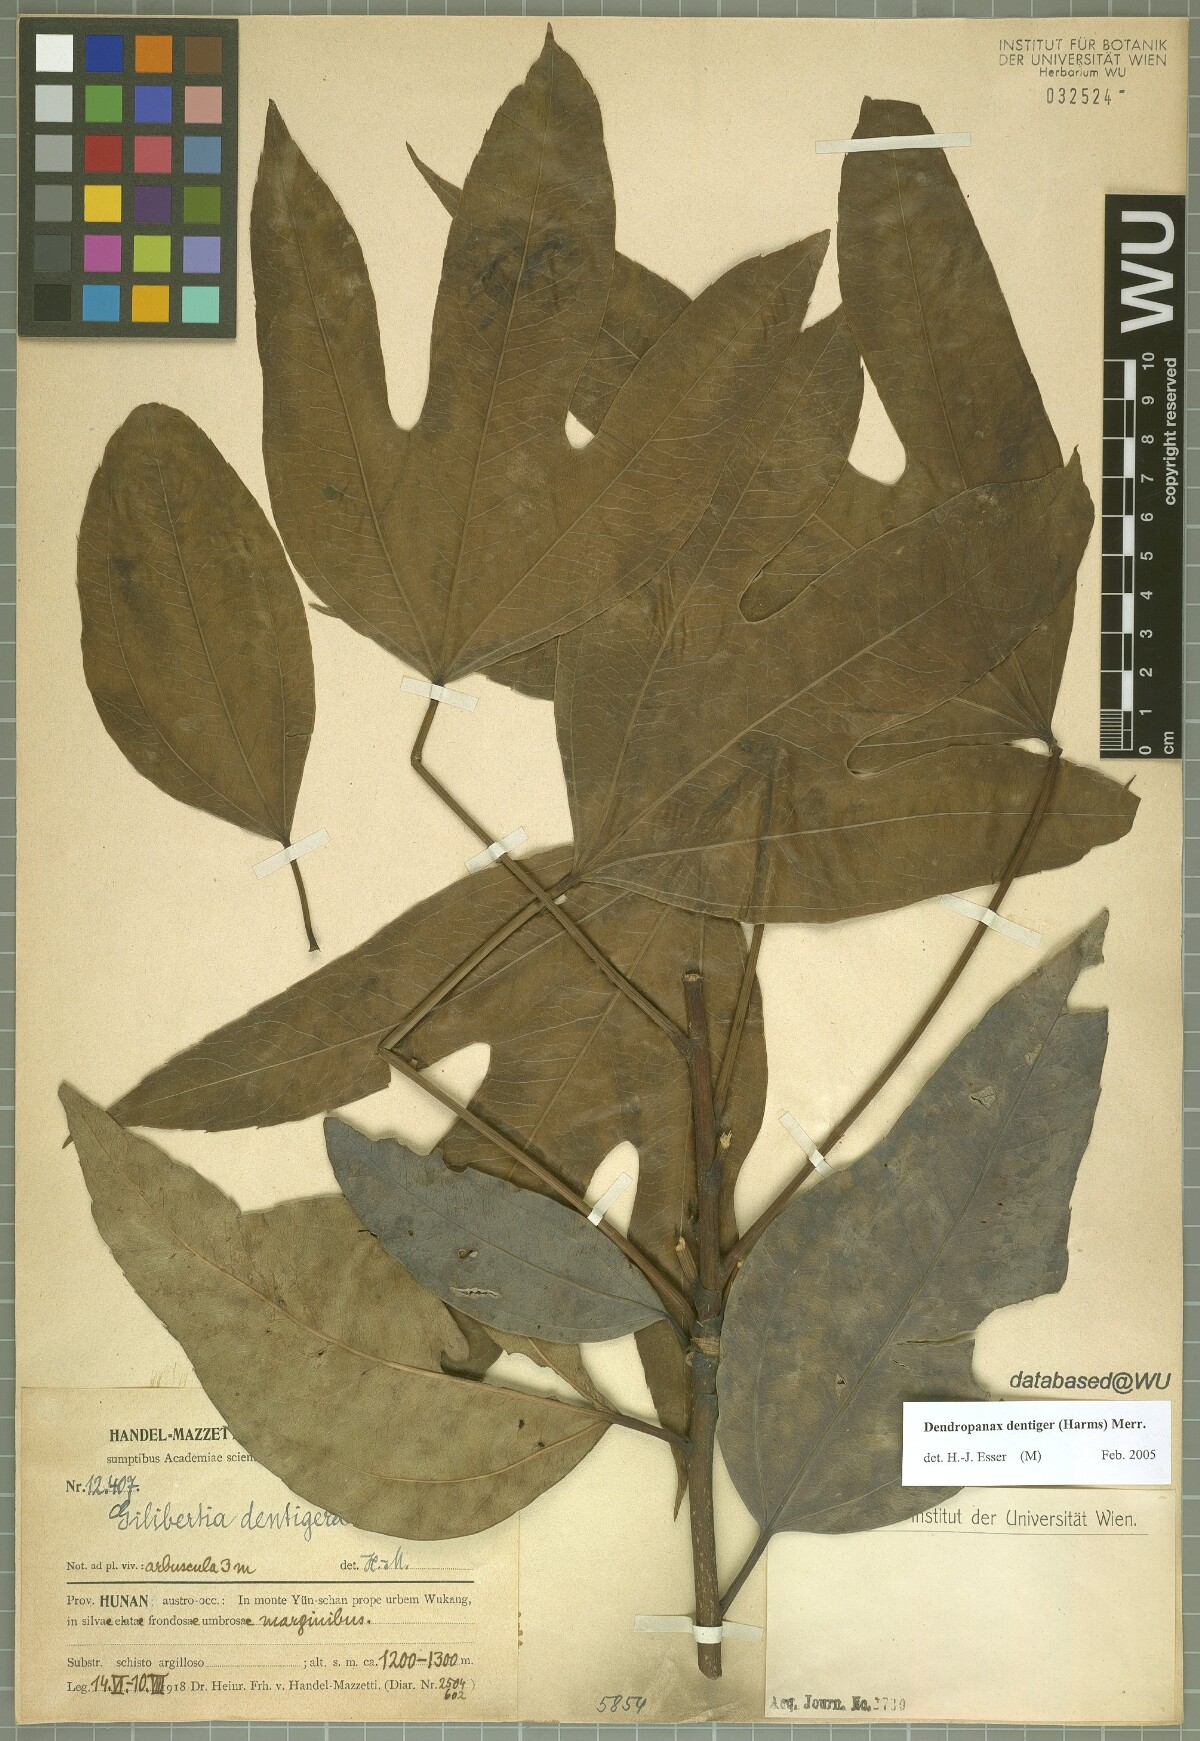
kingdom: Plantae
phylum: Tracheophyta
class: Magnoliopsida
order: Apiales
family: Araliaceae
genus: Dendropanax
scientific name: Dendropanax dentiger
